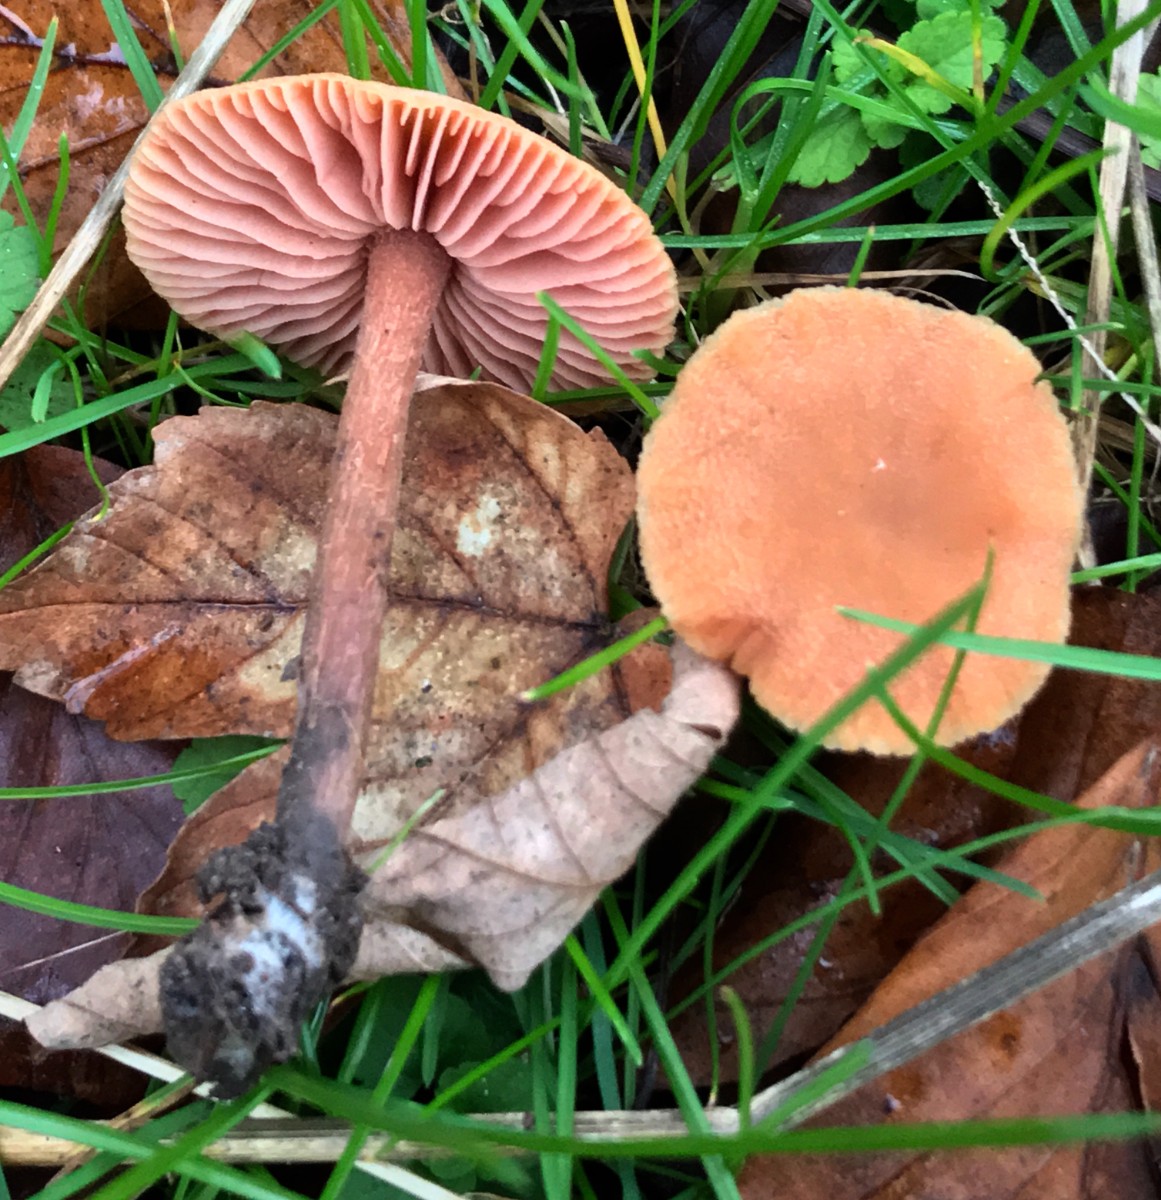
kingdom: Fungi
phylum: Basidiomycota
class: Agaricomycetes
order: Agaricales
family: Hydnangiaceae
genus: Laccaria
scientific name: Laccaria laccata
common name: rød ametysthat
